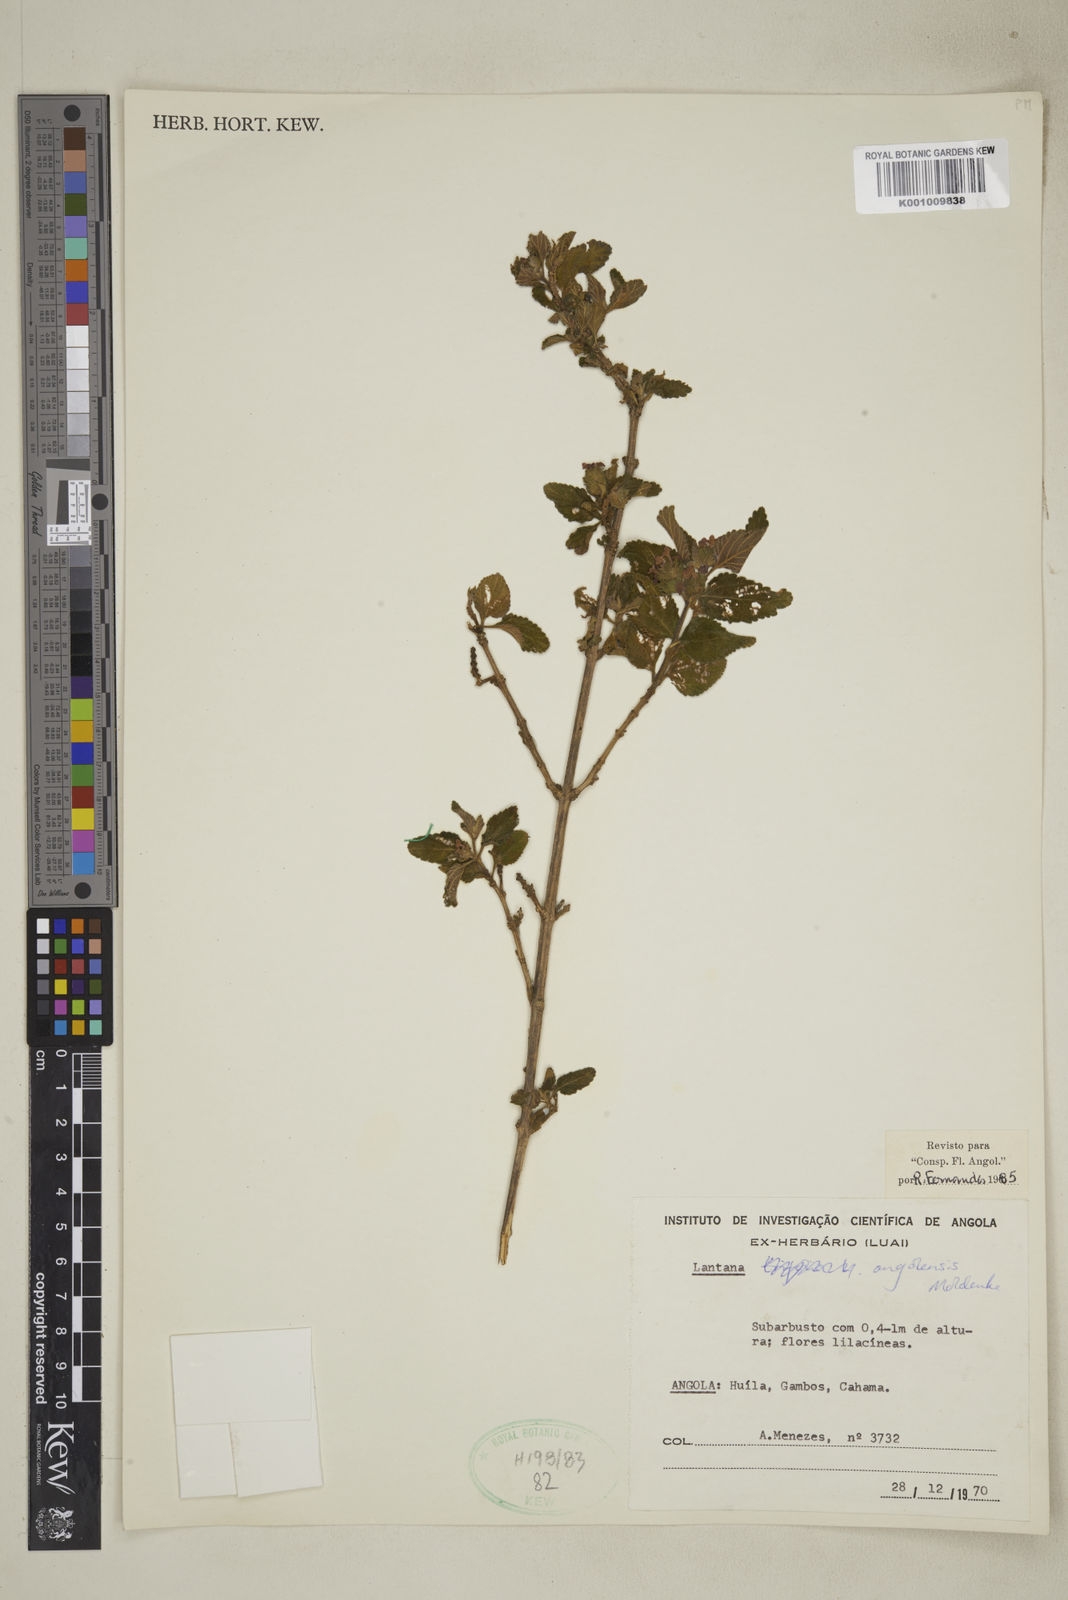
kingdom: Plantae
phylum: Tracheophyta
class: Magnoliopsida
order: Lamiales
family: Verbenaceae
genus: Lantana
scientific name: Lantana angolensis
